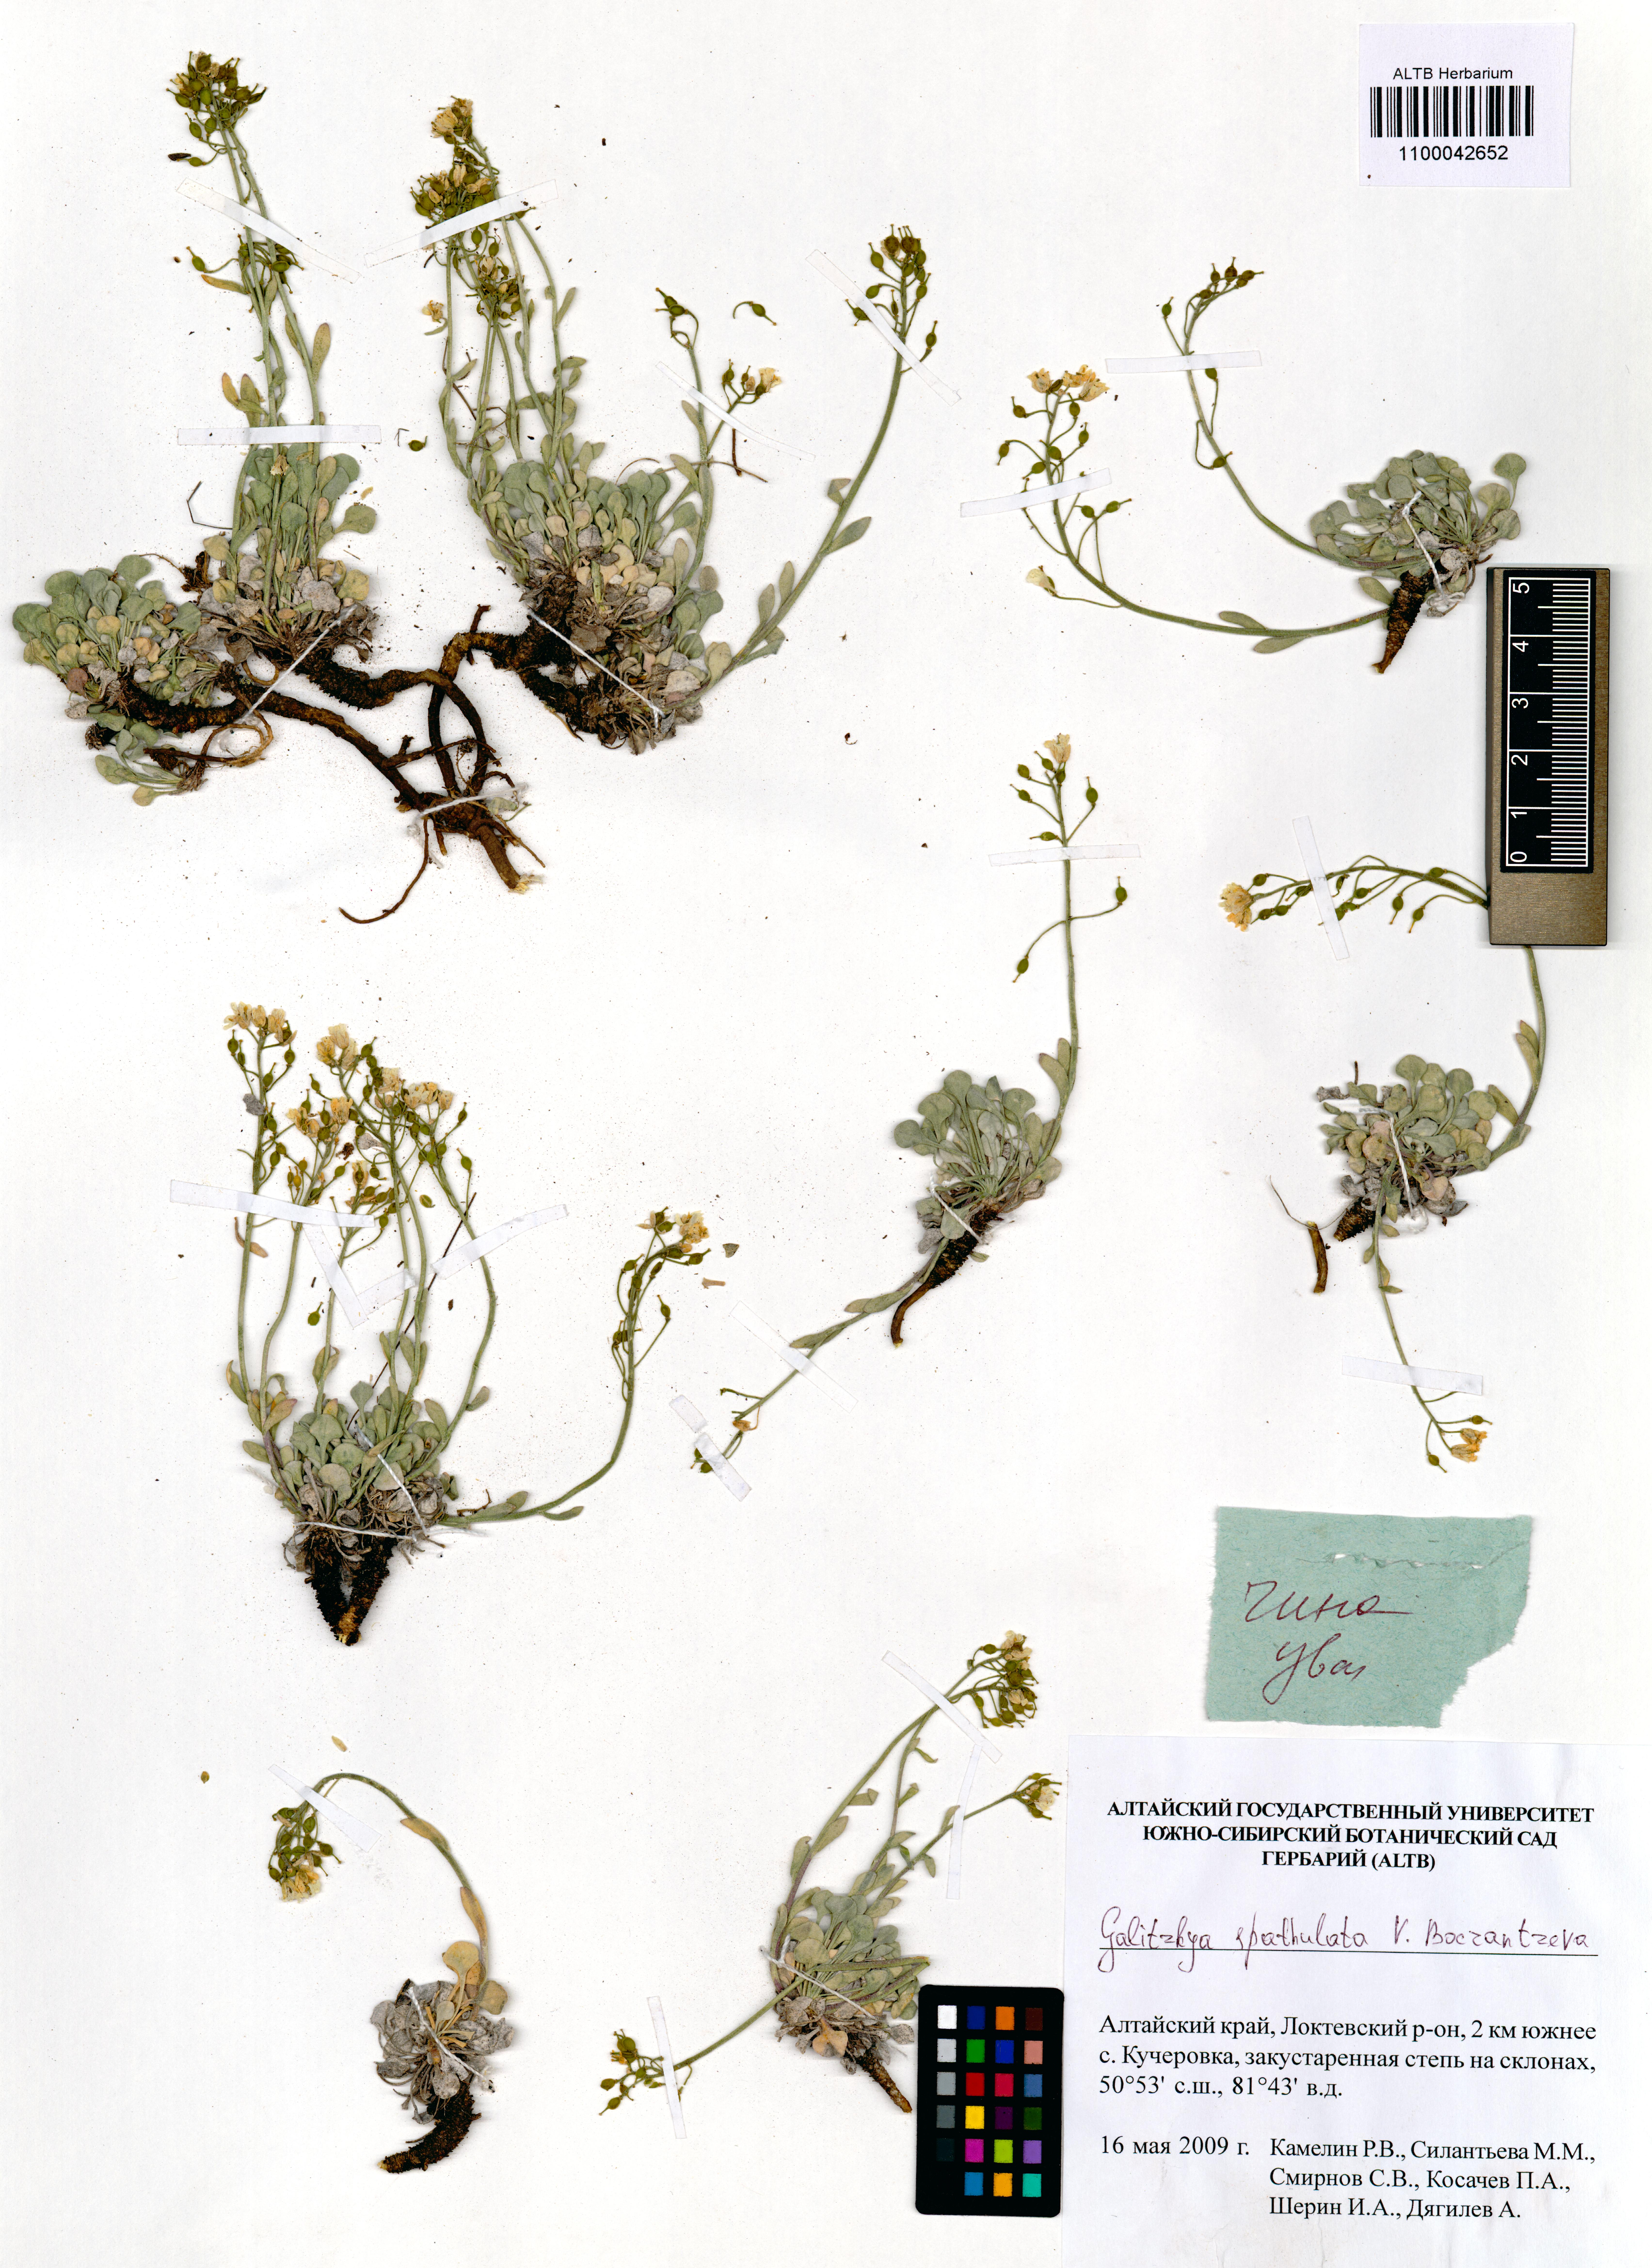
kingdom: Plantae
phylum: Tracheophyta
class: Magnoliopsida
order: Brassicales
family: Brassicaceae
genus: Galitzkya
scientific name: Galitzkya spathulata
